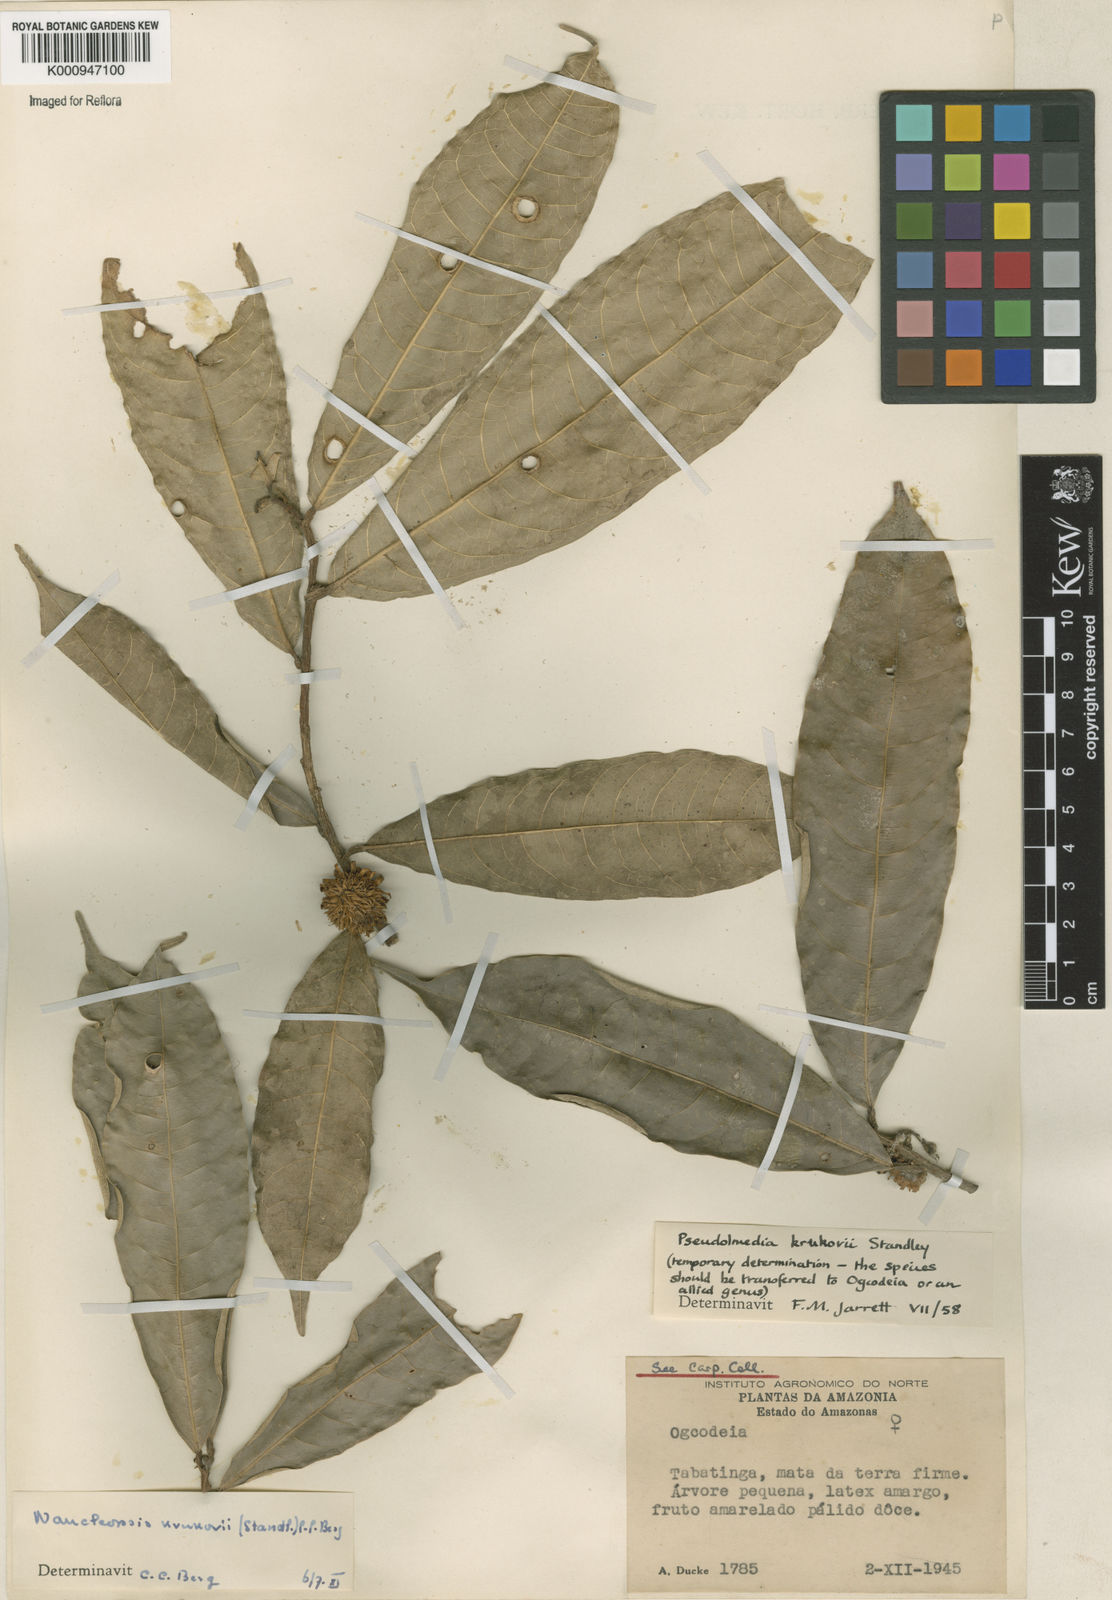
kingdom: Plantae
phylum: Tracheophyta
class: Magnoliopsida
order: Rosales
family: Moraceae
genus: Naucleopsis
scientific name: Naucleopsis krukovii
